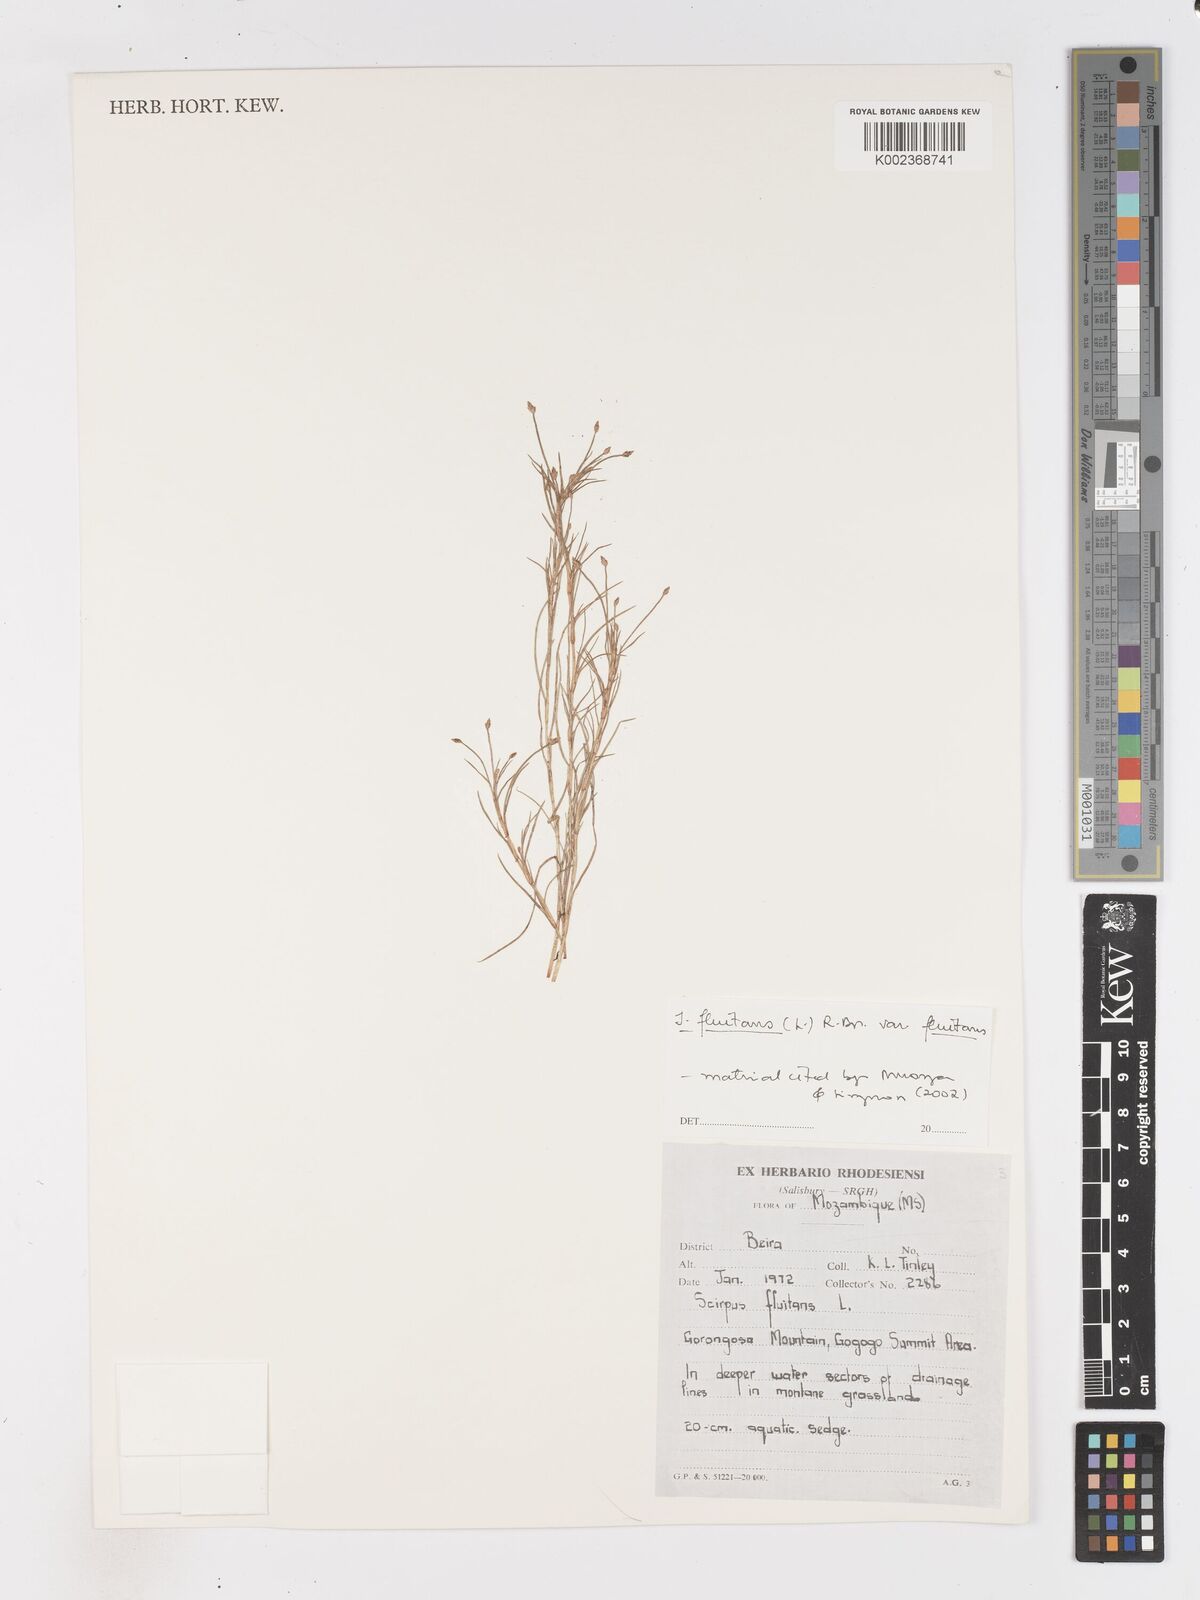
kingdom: Plantae
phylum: Tracheophyta
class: Liliopsida
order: Poales
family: Cyperaceae
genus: Isolepis
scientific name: Isolepis fluitans
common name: Floating club-rush
